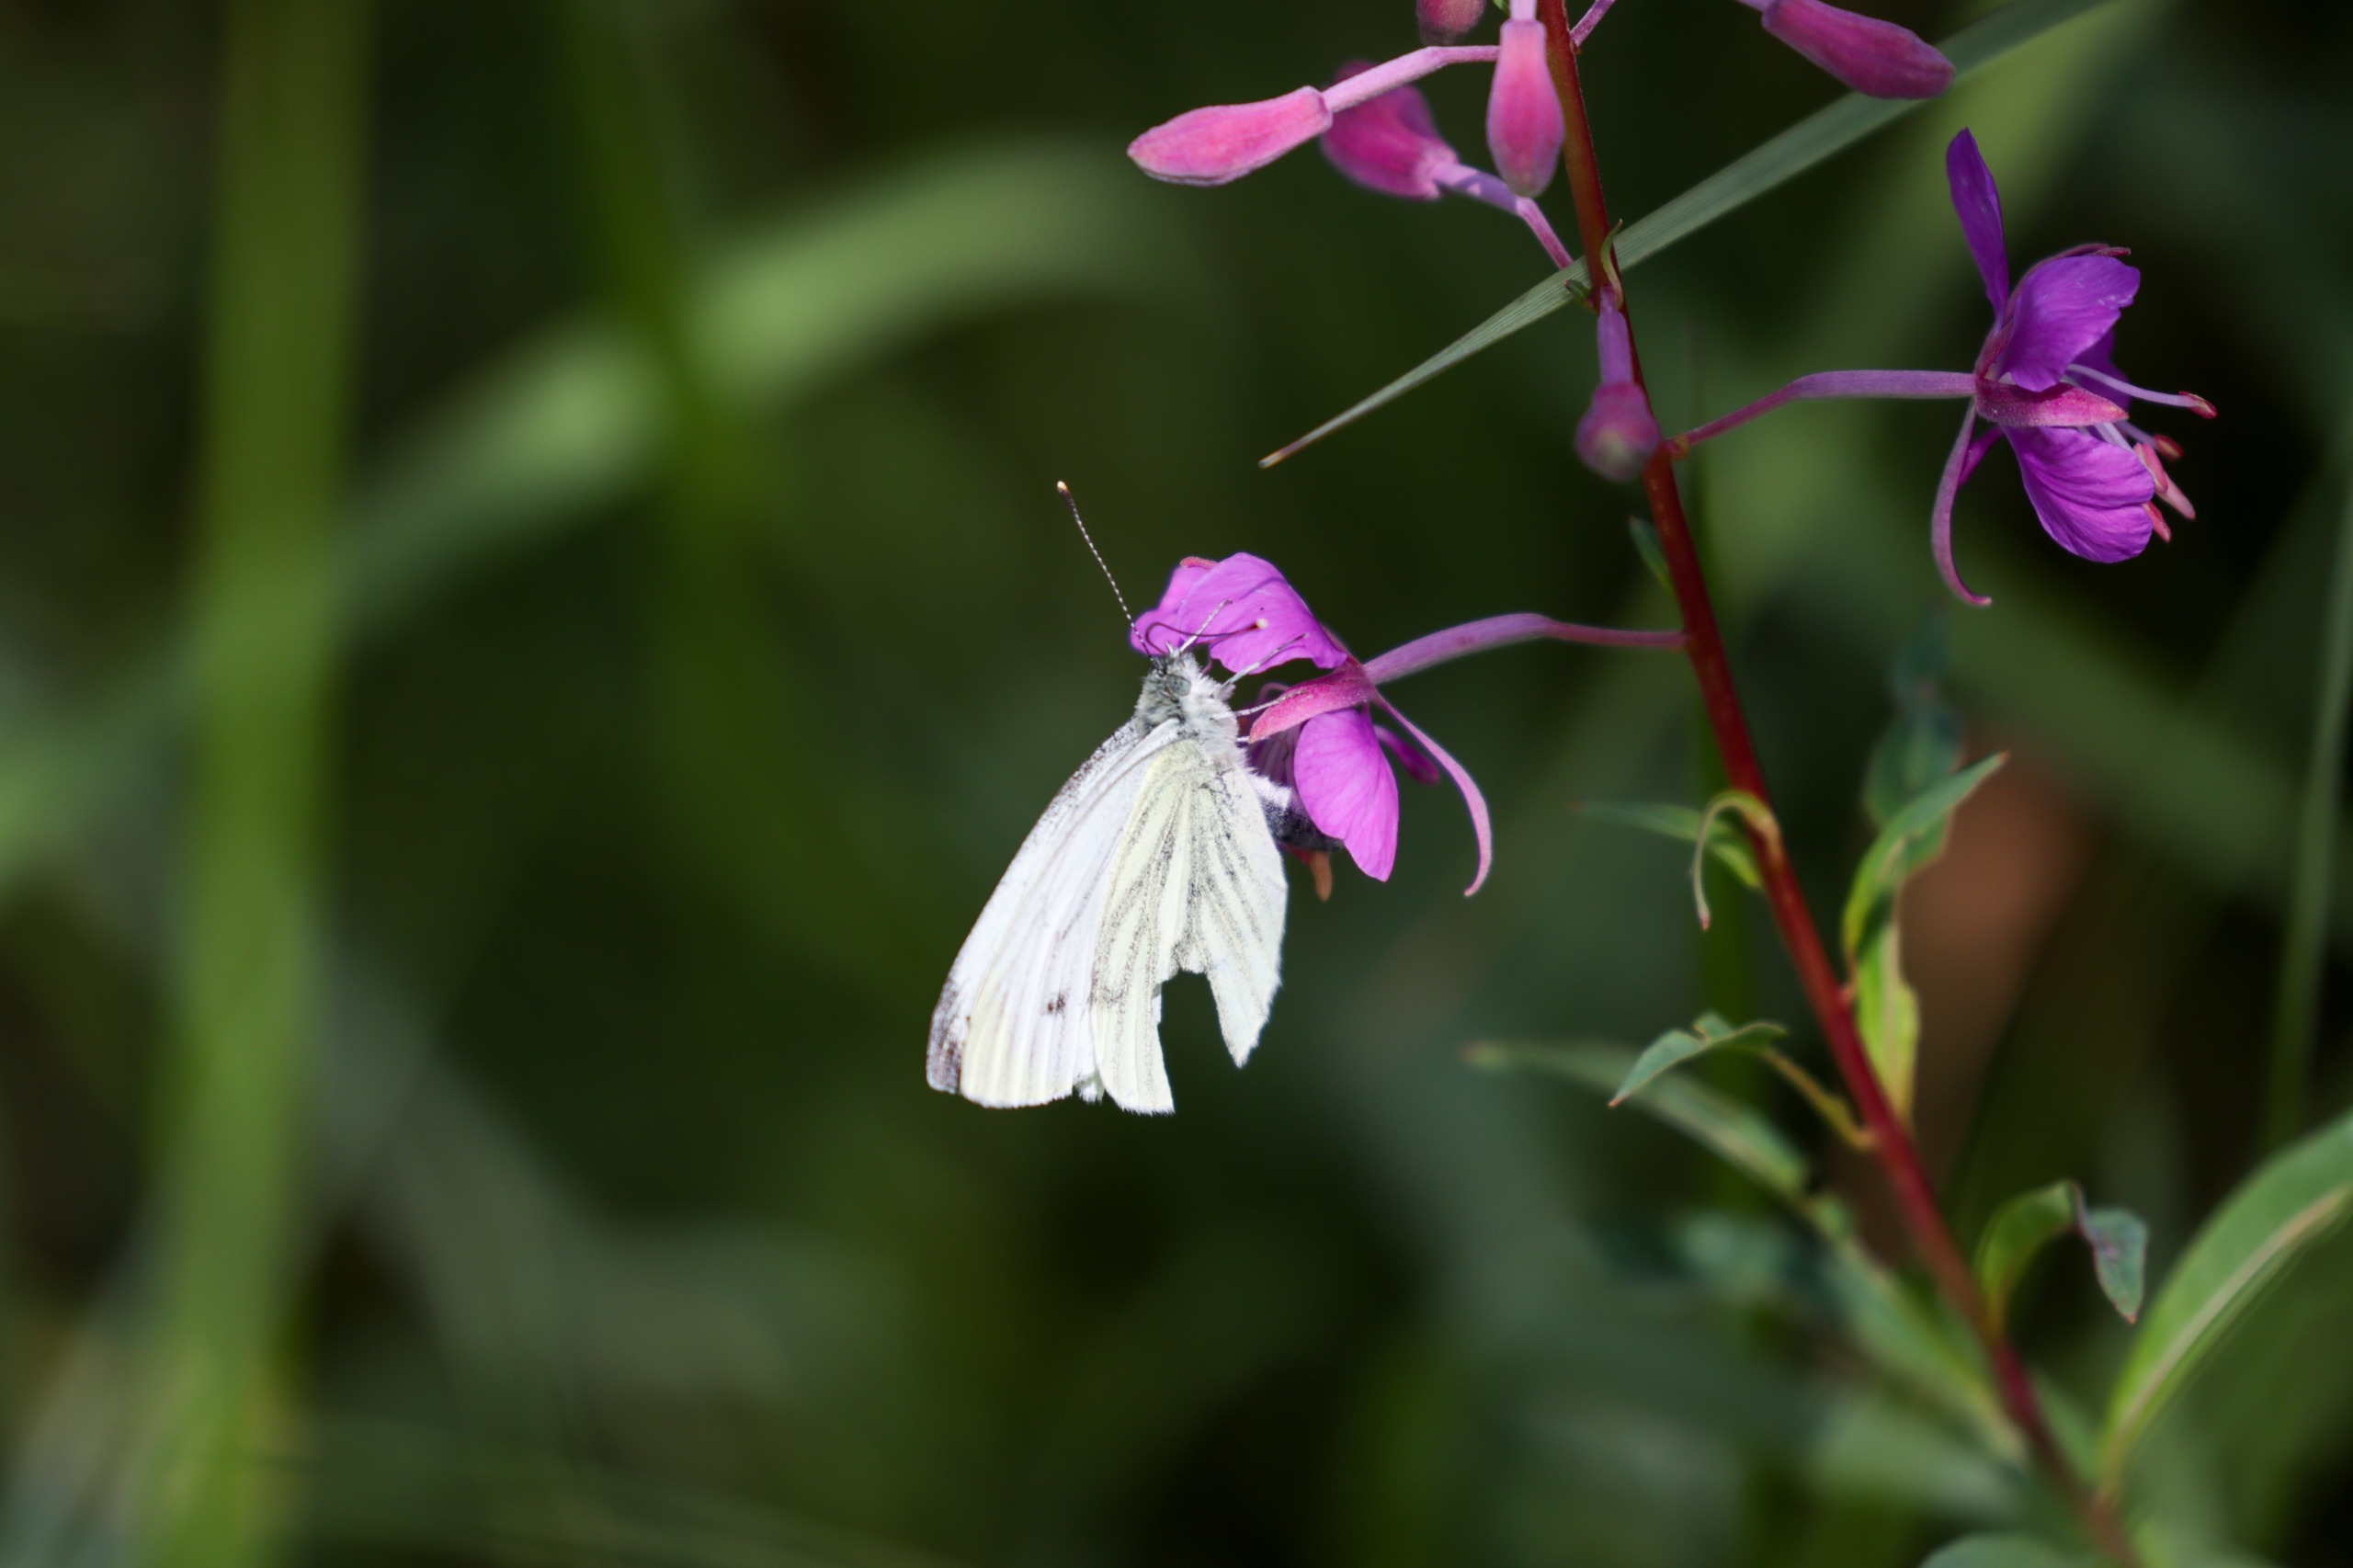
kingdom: Animalia
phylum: Arthropoda
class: Insecta
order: Lepidoptera
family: Pieridae
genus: Pieris
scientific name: Pieris napi
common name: Grønåret kålsommerfugl
